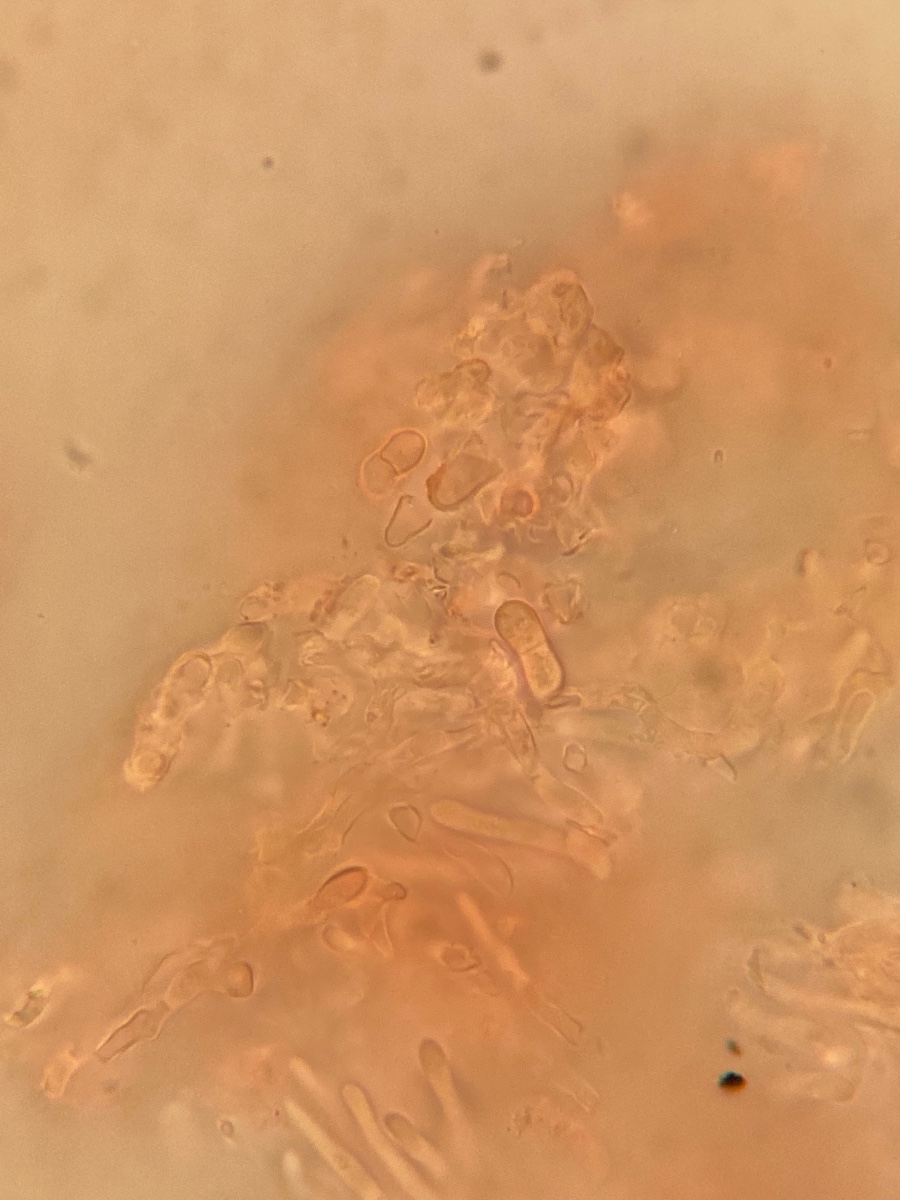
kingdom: Fungi
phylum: Ascomycota
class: Lecanoromycetes
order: Ostropales
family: Gomphillaceae
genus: Corticifraga
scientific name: Corticifraga fuckelii
